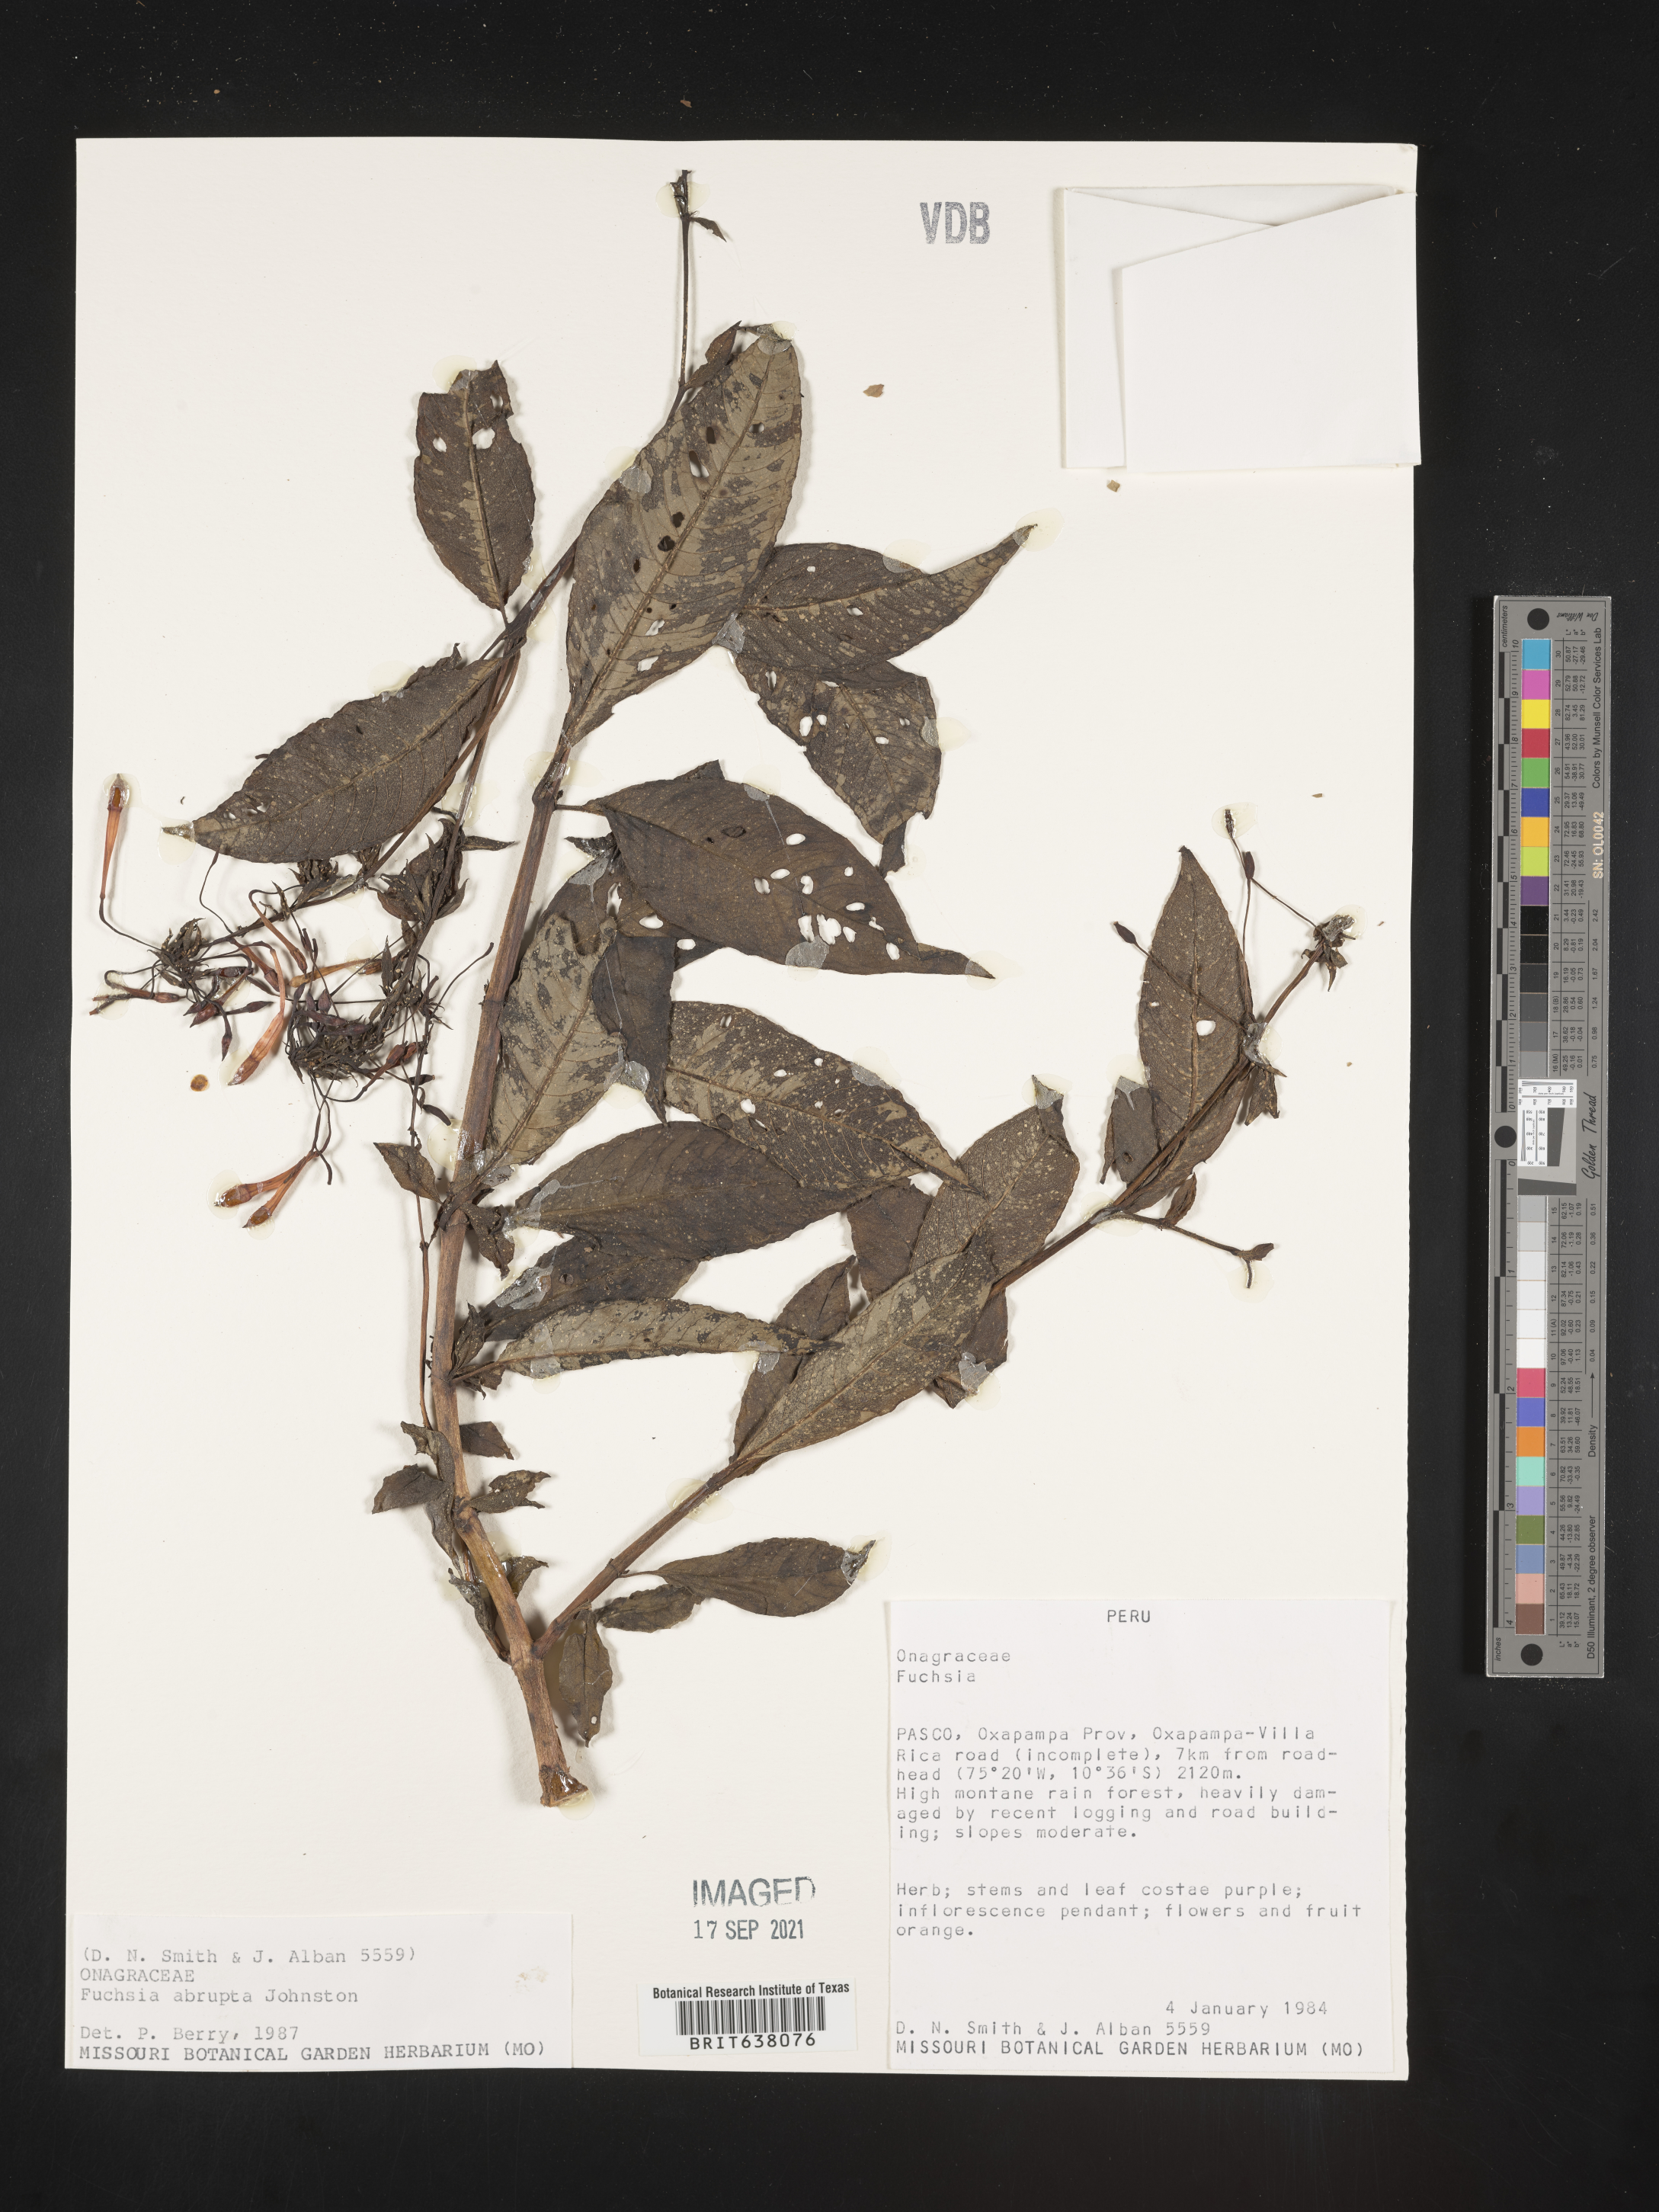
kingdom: Plantae
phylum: Tracheophyta
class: Magnoliopsida
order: Myrtales
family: Onagraceae
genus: Fuchsia
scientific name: Fuchsia
